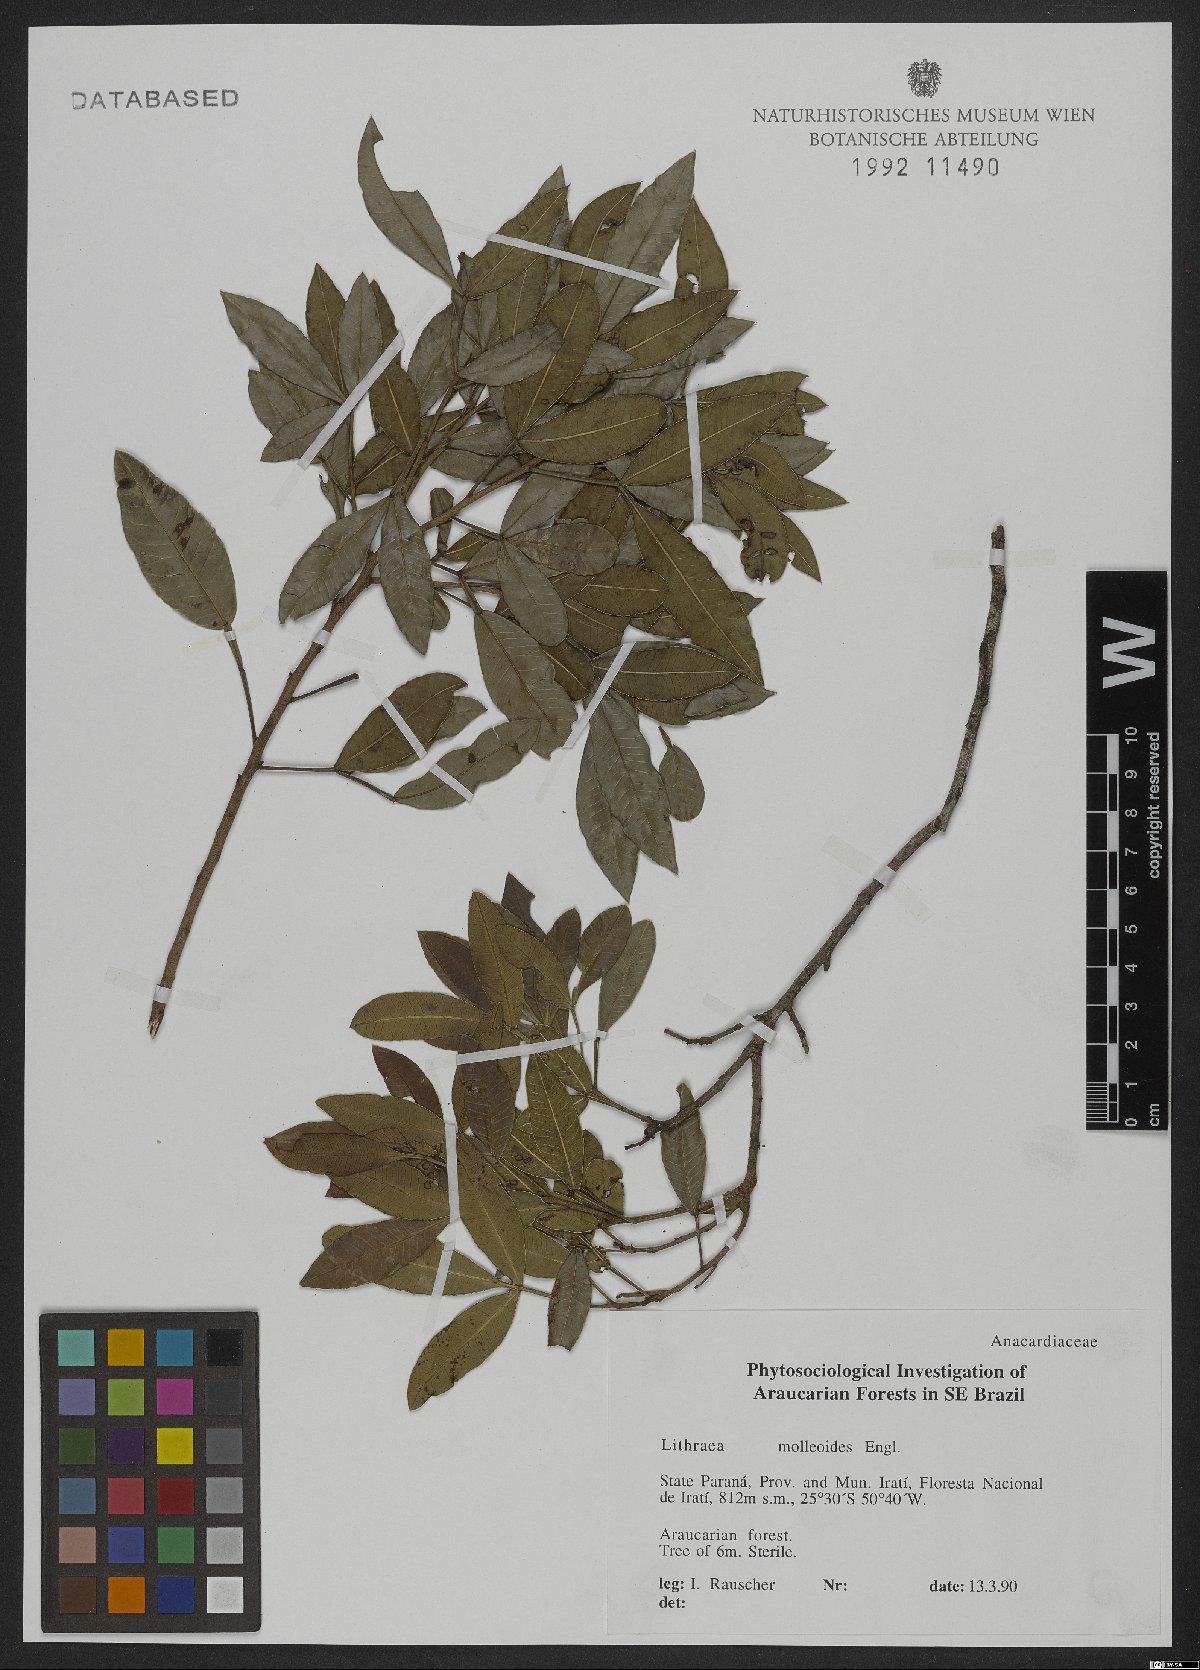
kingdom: Plantae
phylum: Tracheophyta
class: Magnoliopsida
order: Sapindales
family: Anacardiaceae
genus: Lithraea
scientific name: Lithraea molleoides
